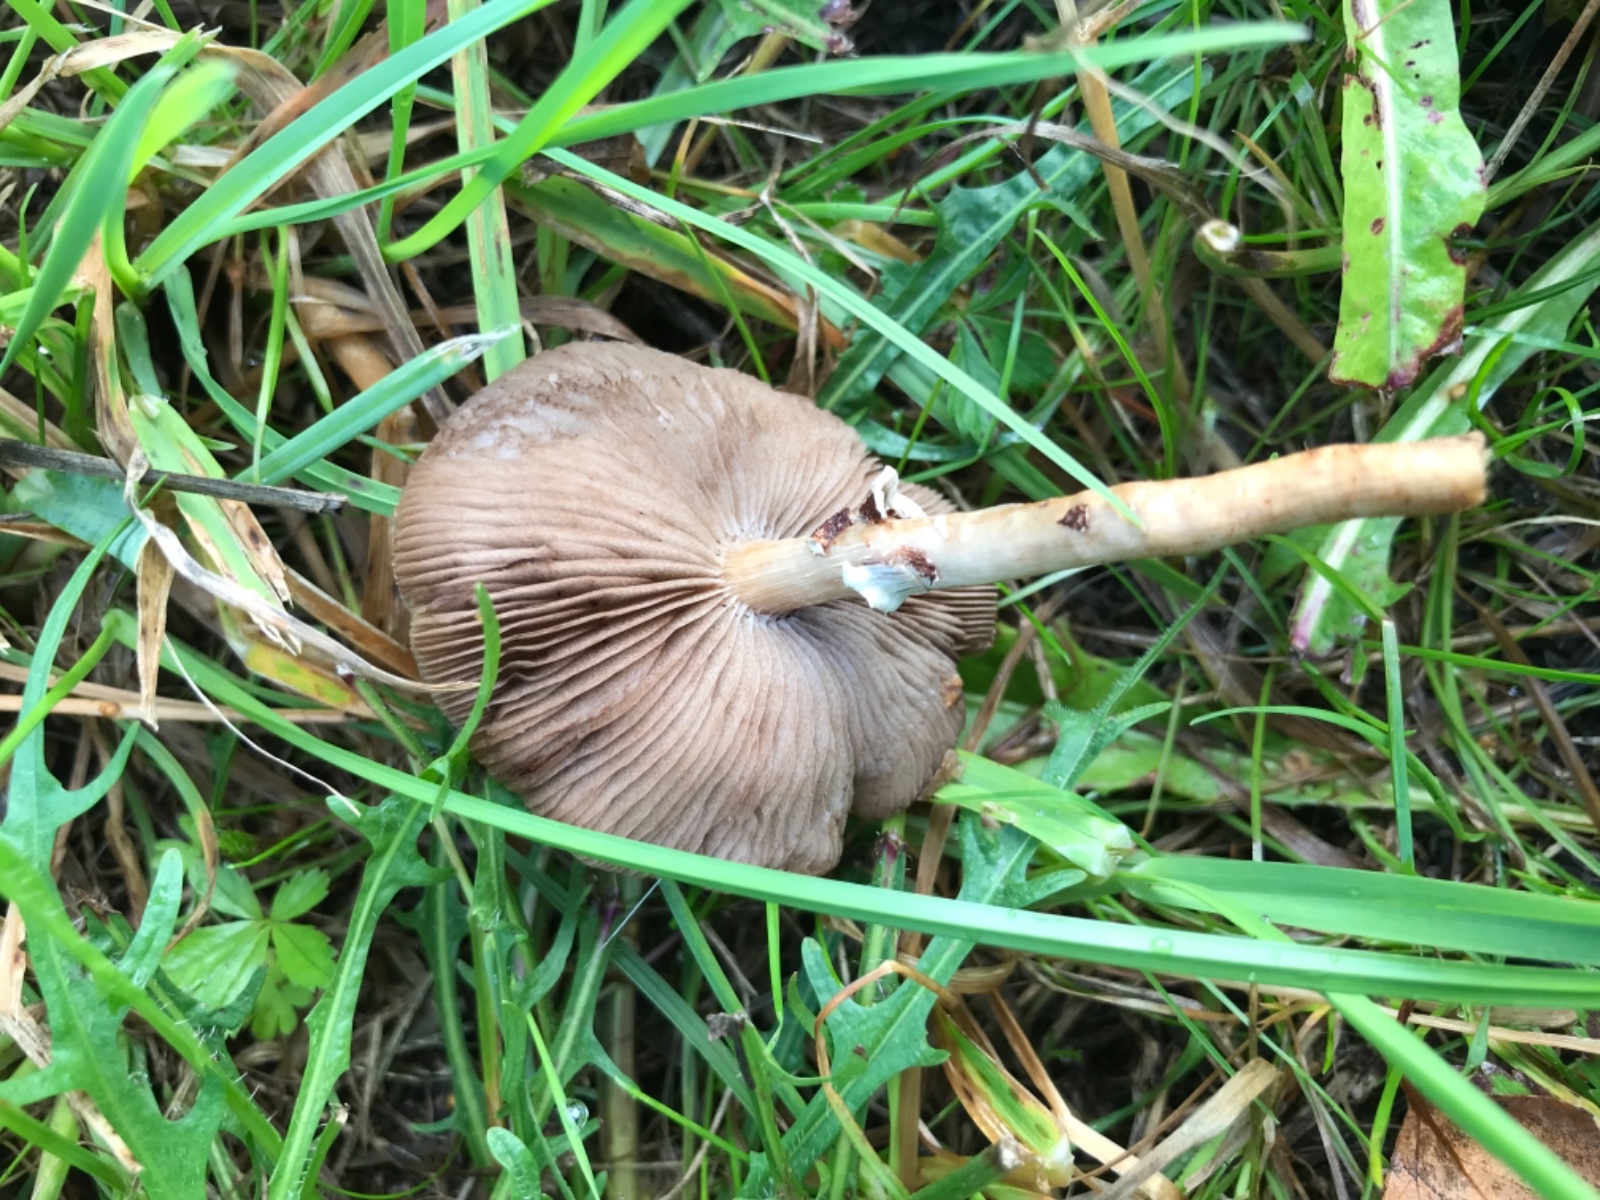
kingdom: Fungi
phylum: Basidiomycota
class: Agaricomycetes
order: Agaricales
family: Strophariaceae
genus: Agrocybe
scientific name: Agrocybe
